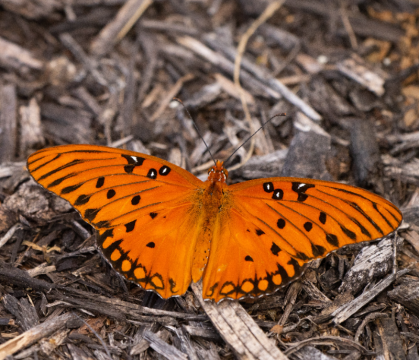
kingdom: Animalia
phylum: Arthropoda
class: Insecta
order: Lepidoptera
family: Nymphalidae
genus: Dione
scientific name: Dione vanillae
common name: Gulf Fritillary
